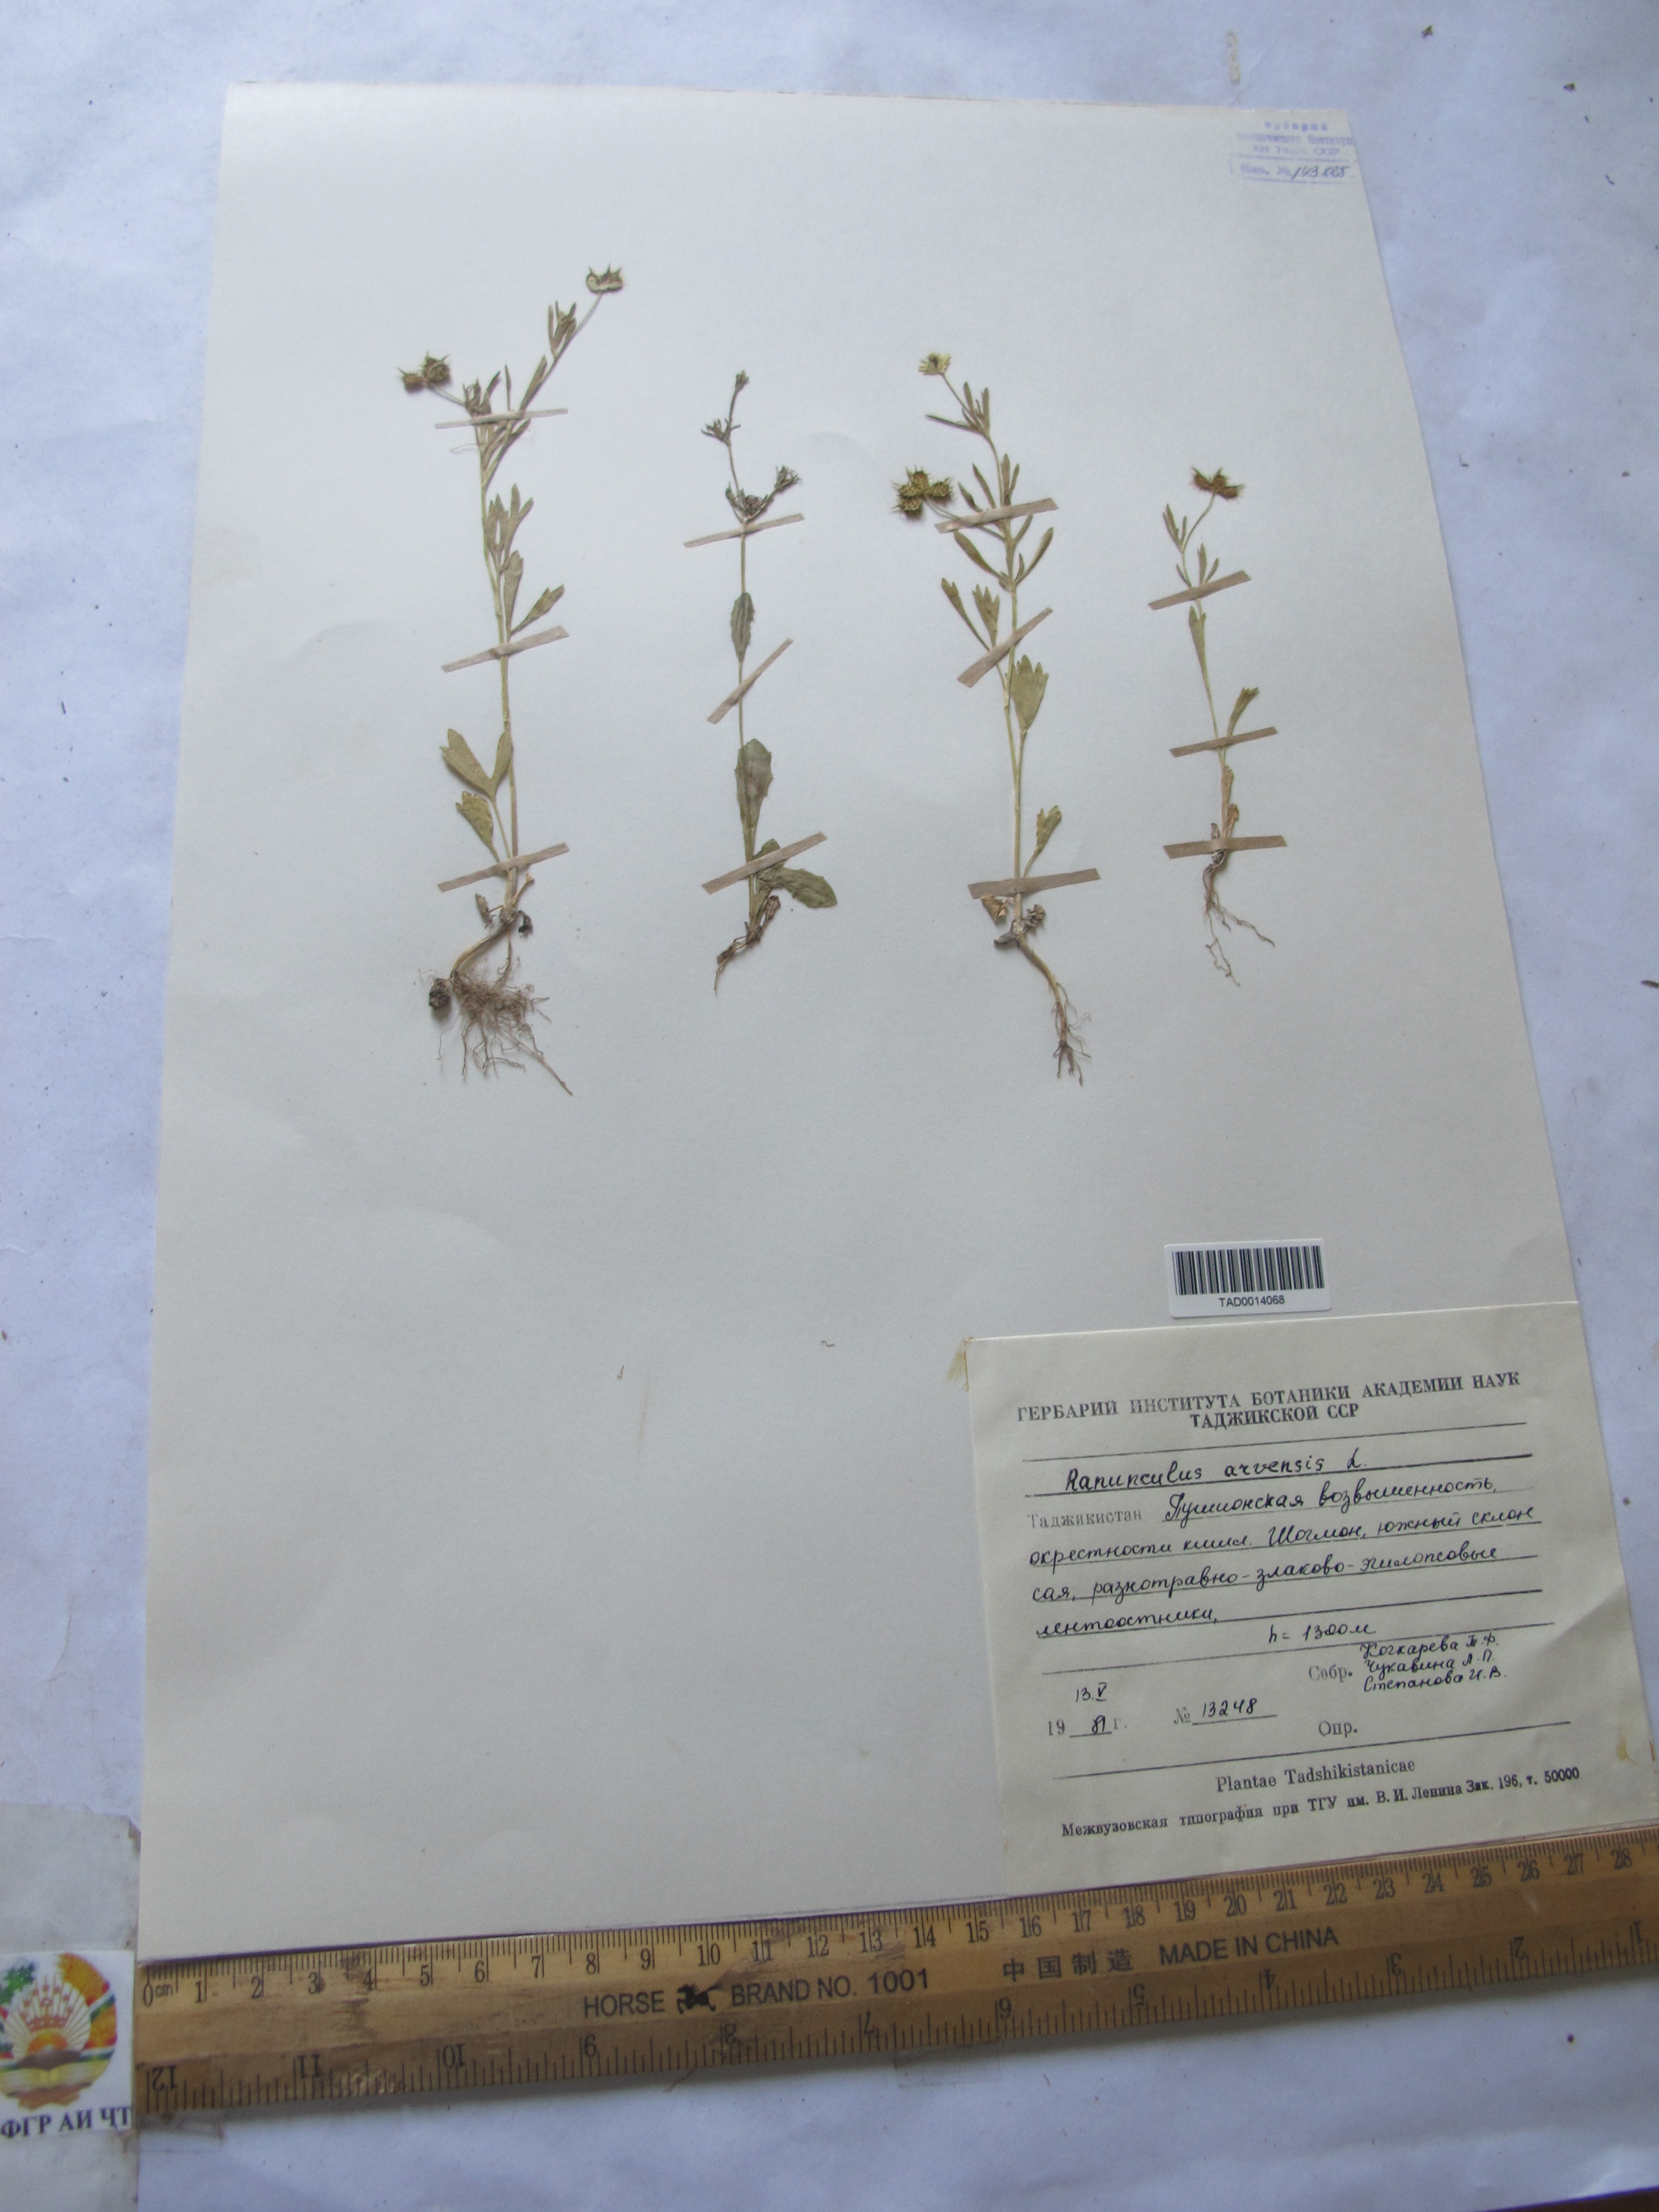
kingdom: Plantae
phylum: Tracheophyta
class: Magnoliopsida
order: Ranunculales
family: Ranunculaceae
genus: Ranunculus
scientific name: Ranunculus arvensis
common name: Corn buttercup
